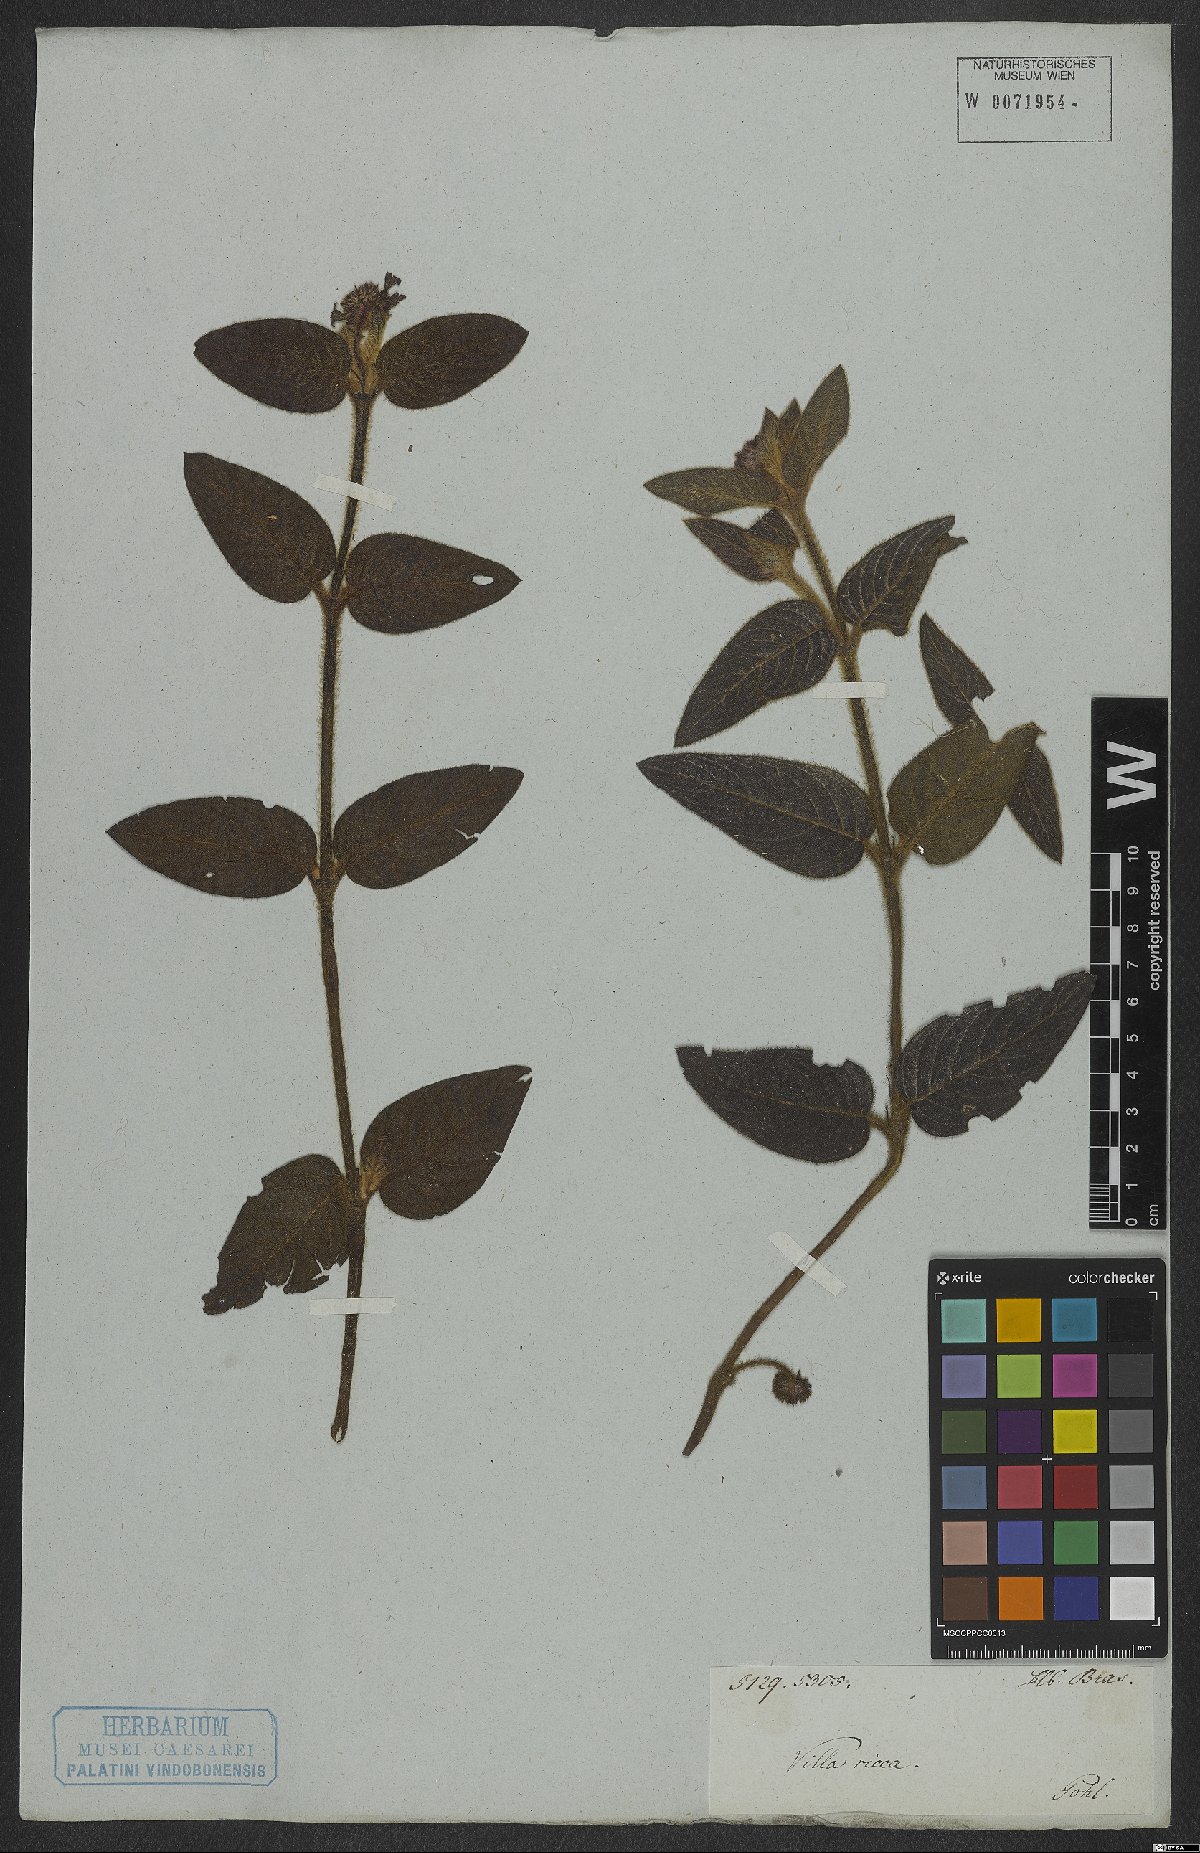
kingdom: Plantae
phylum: Tracheophyta
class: Magnoliopsida
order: Gentianales
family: Rubiaceae
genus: Coccocypselum
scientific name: Coccocypselum
